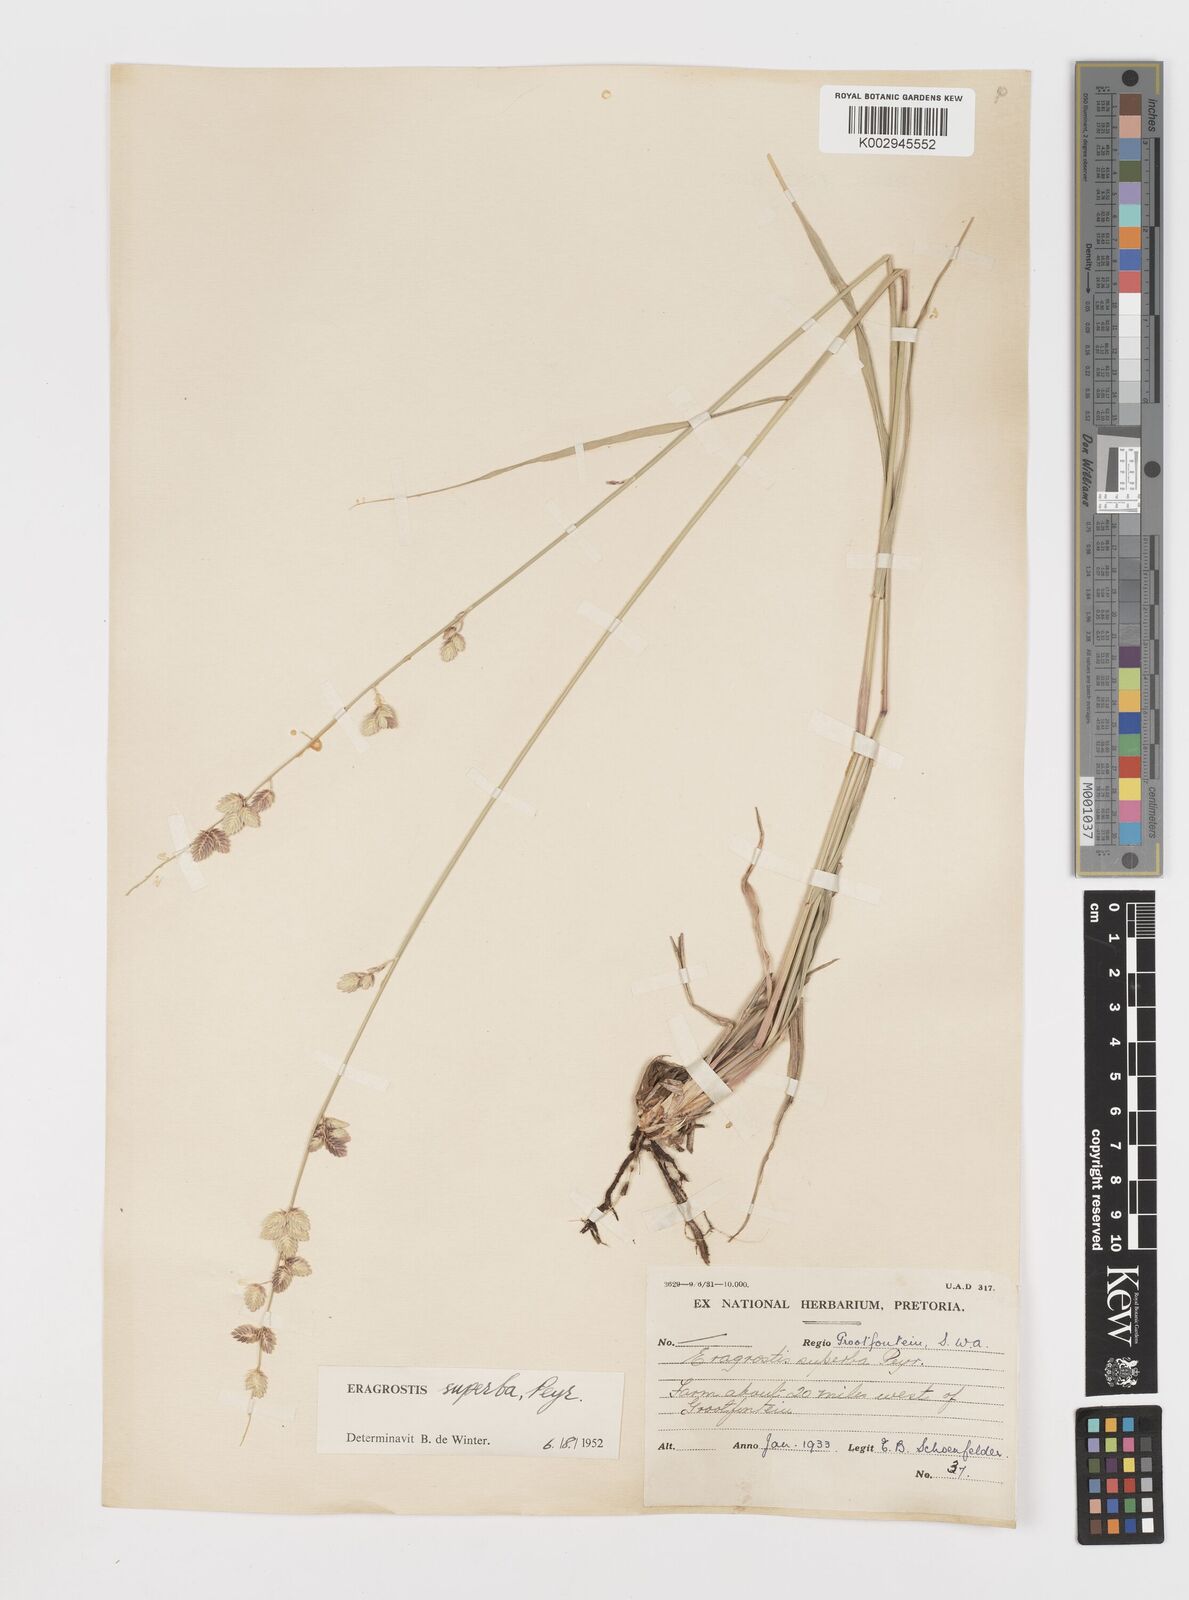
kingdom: Plantae
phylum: Tracheophyta
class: Liliopsida
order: Poales
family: Poaceae
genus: Eragrostis
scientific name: Eragrostis superba
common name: Wilman lovegrass
